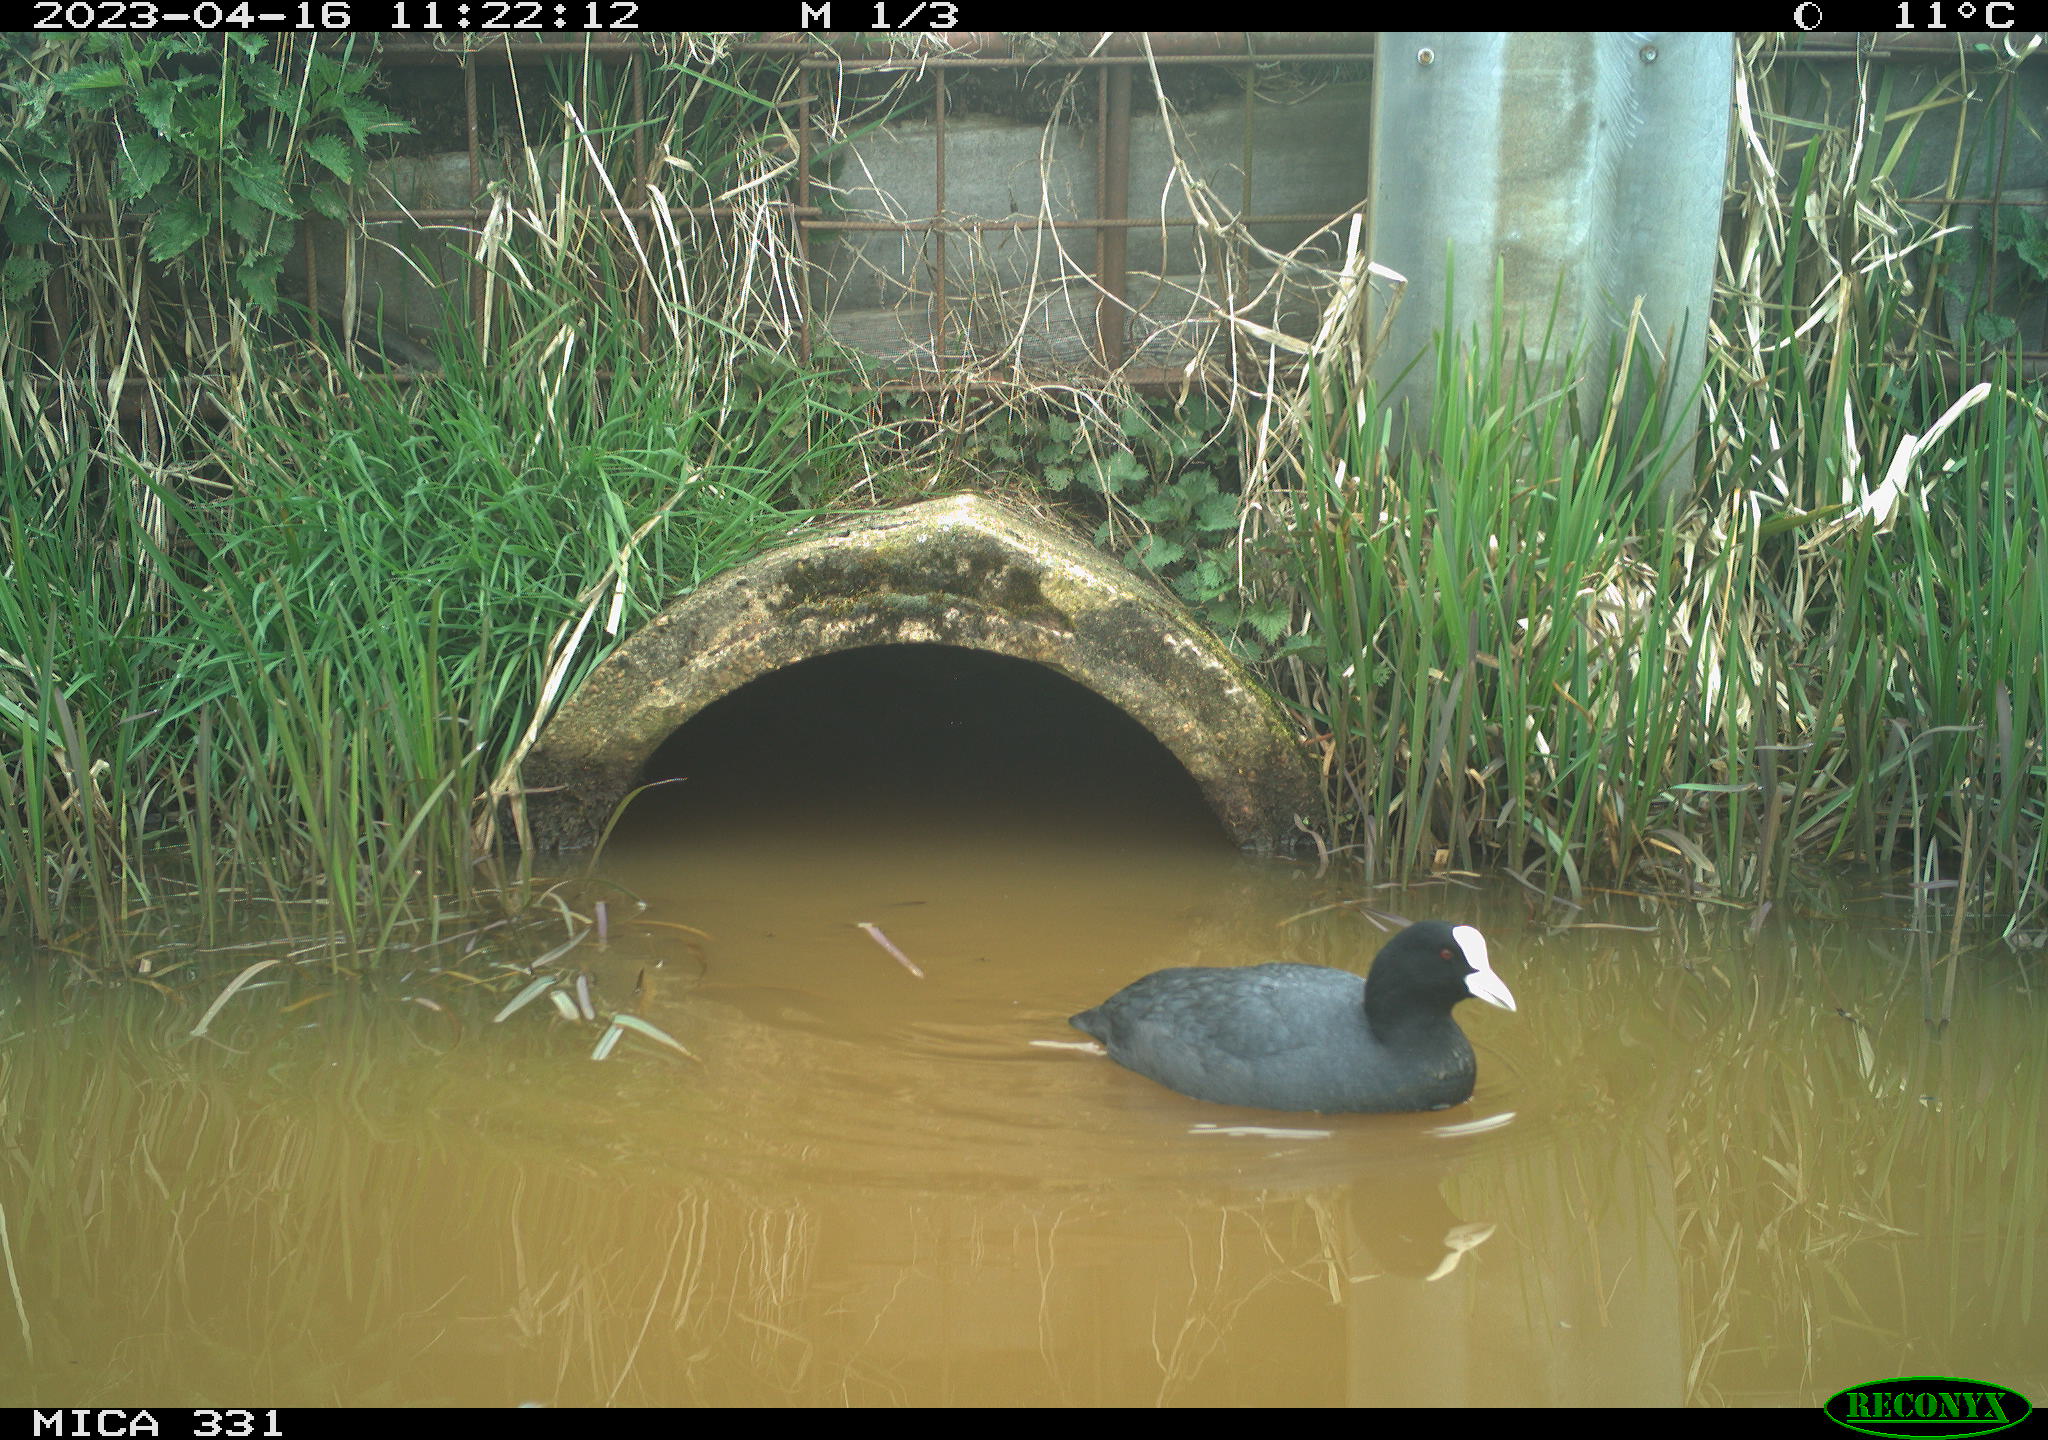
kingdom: Animalia
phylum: Chordata
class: Aves
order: Gruiformes
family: Rallidae
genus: Fulica
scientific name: Fulica atra
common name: Eurasian coot
